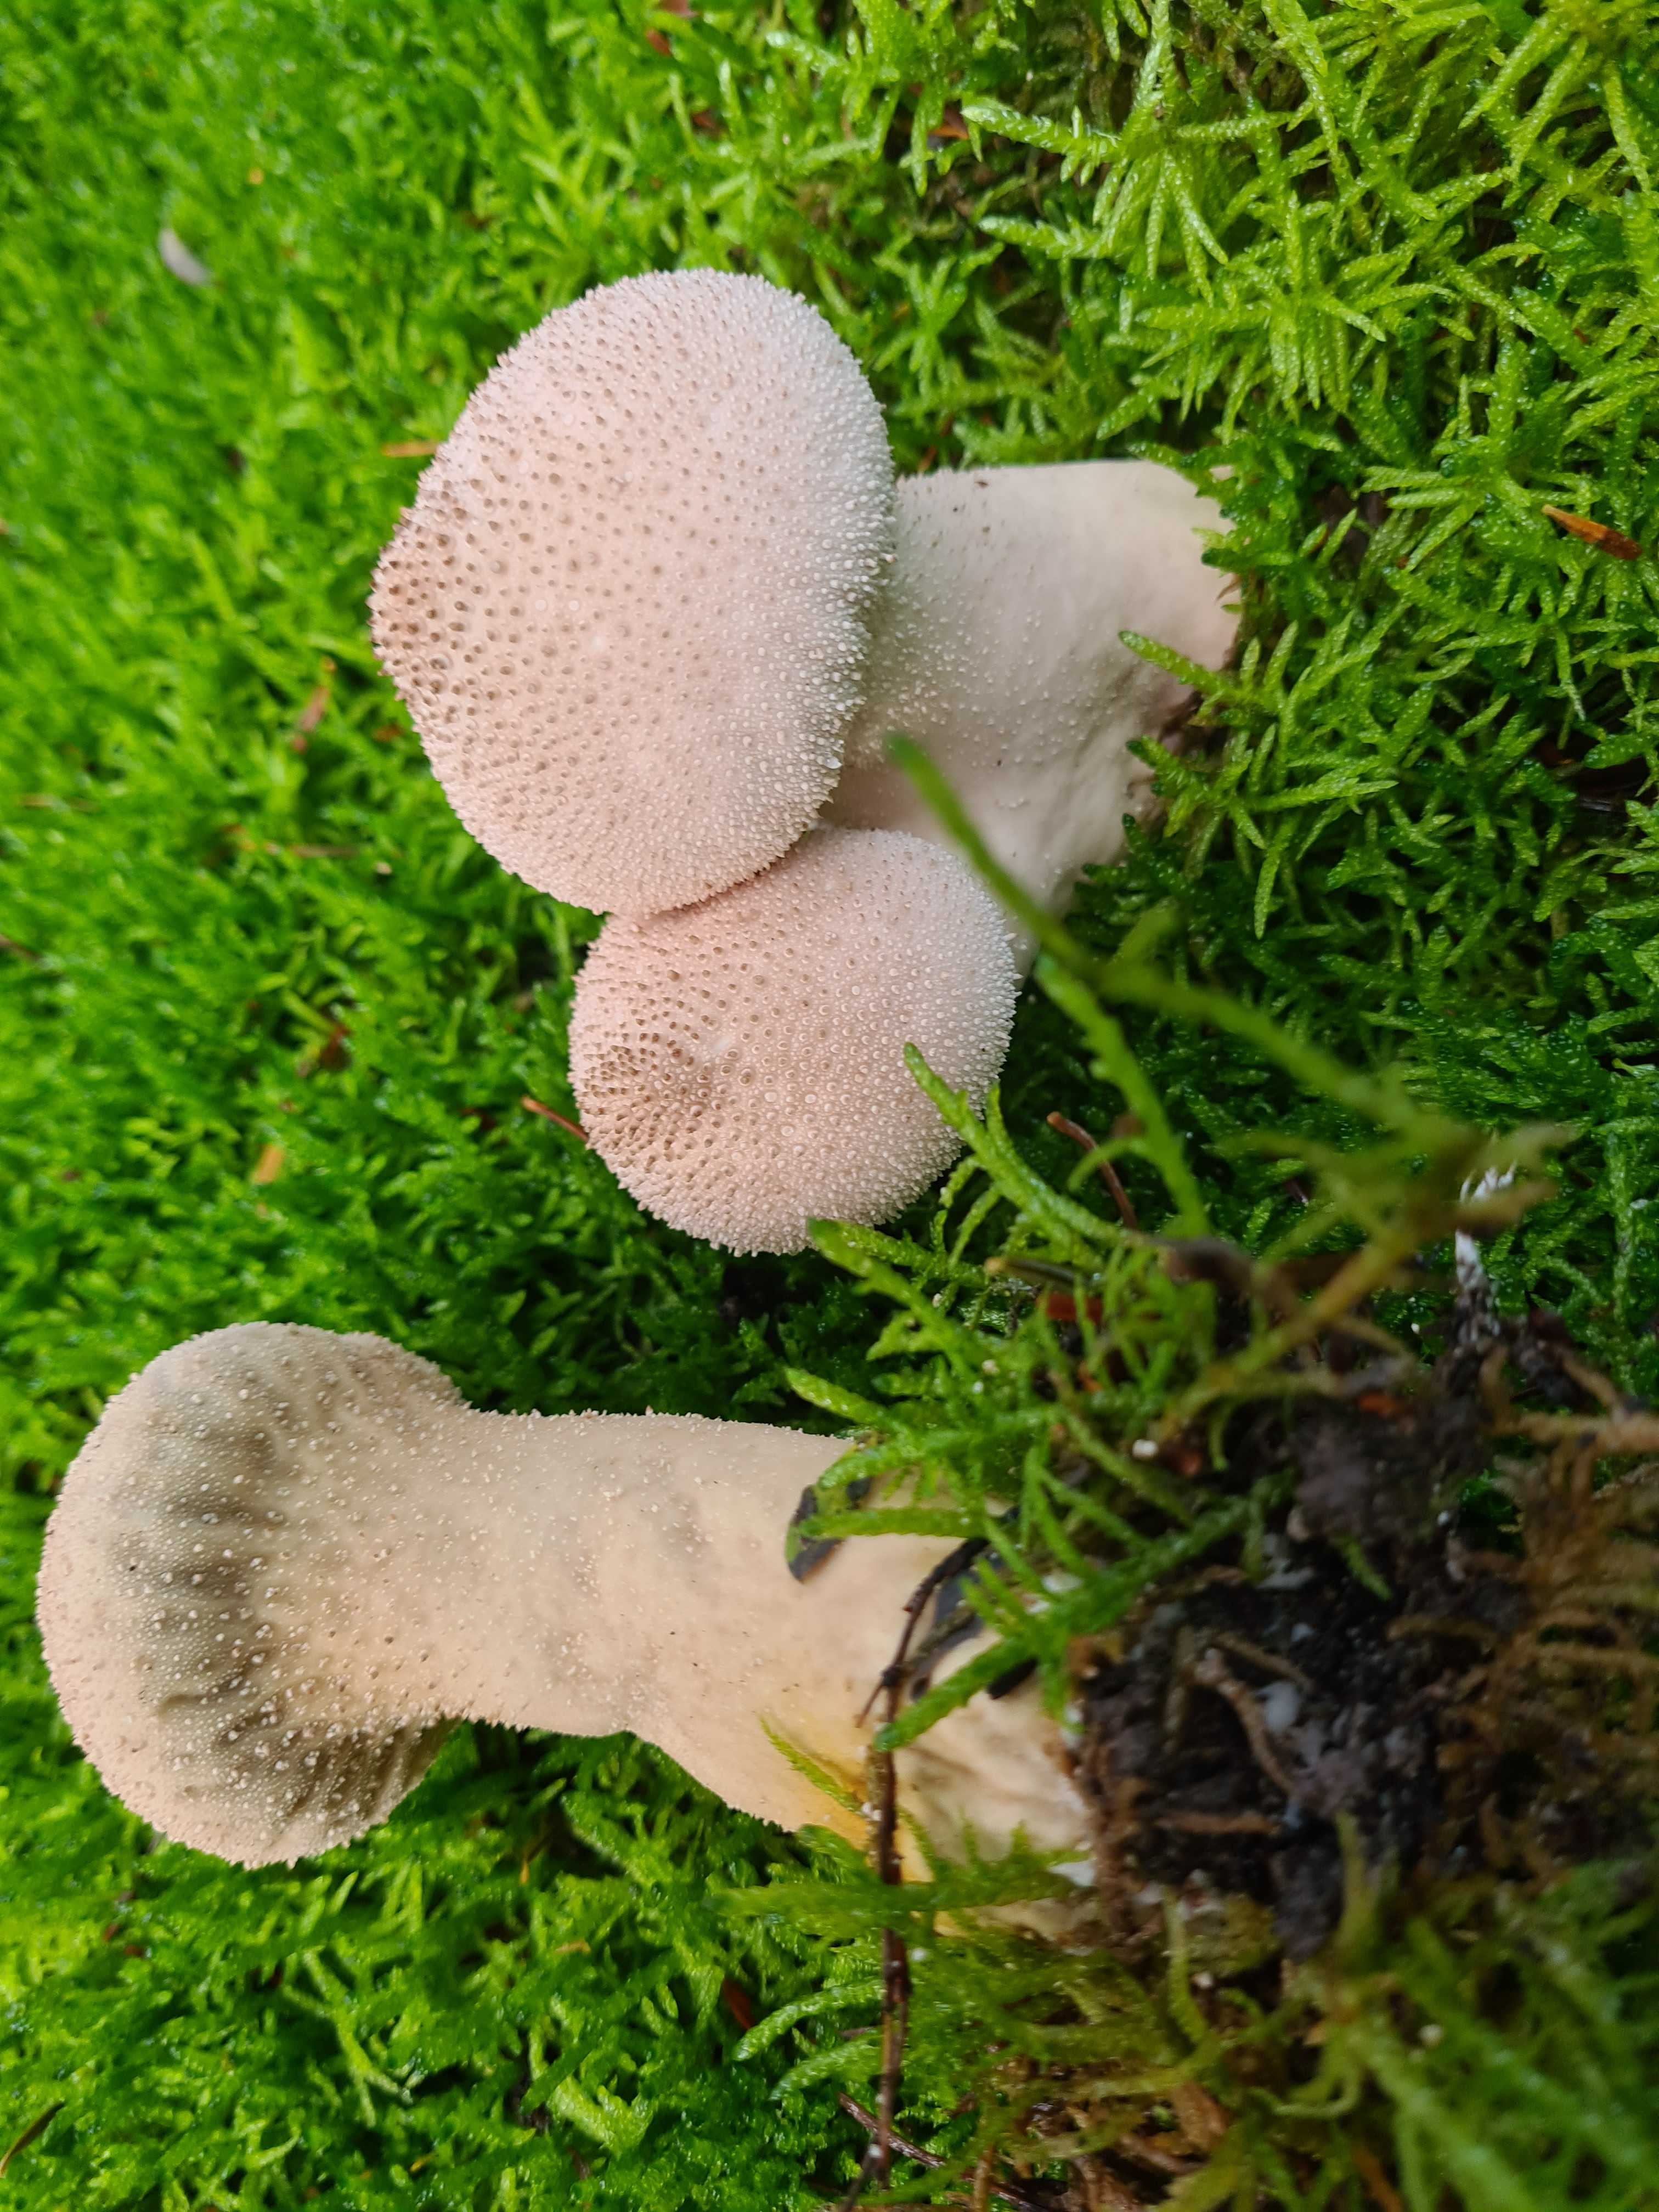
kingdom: Fungi
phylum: Basidiomycota
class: Agaricomycetes
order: Agaricales
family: Lycoperdaceae
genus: Lycoperdon
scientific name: Lycoperdon perlatum
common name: krystal-støvbold
